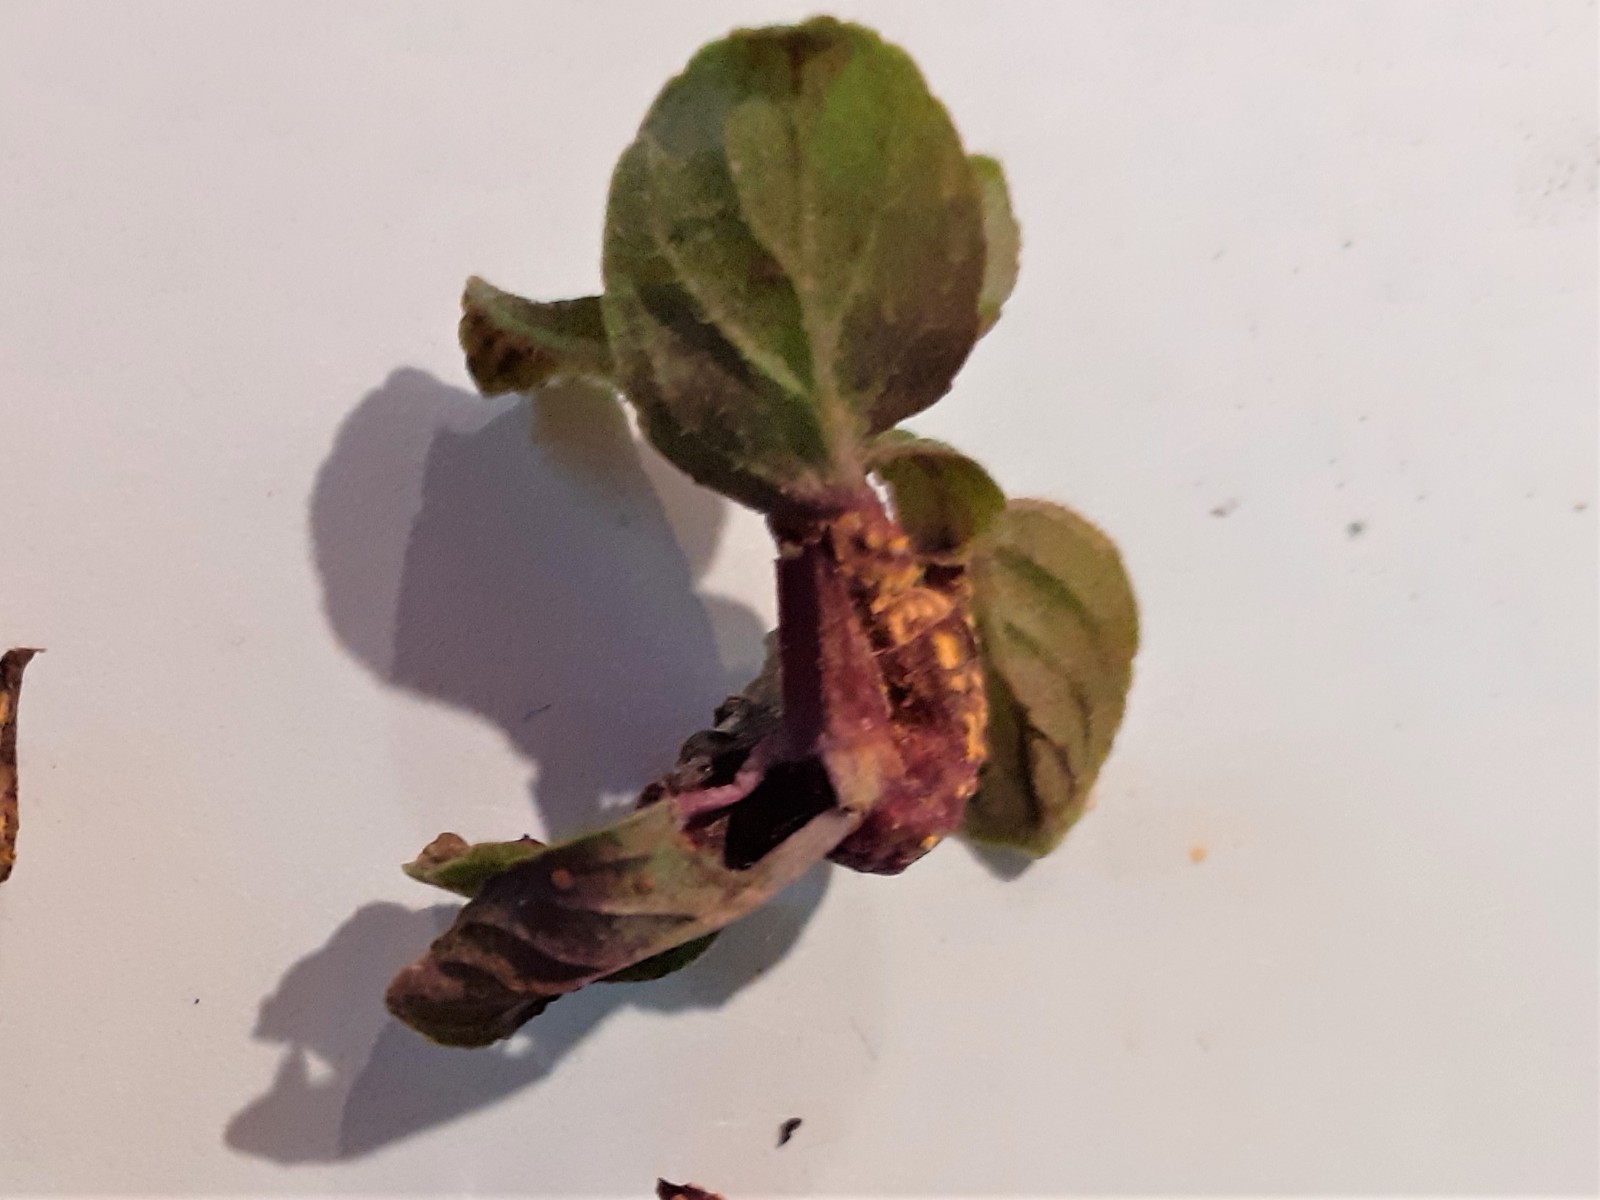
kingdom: Fungi
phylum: Basidiomycota
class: Pucciniomycetes
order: Pucciniales
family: Pucciniaceae
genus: Puccinia
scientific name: Puccinia menthae
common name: Mint rust
